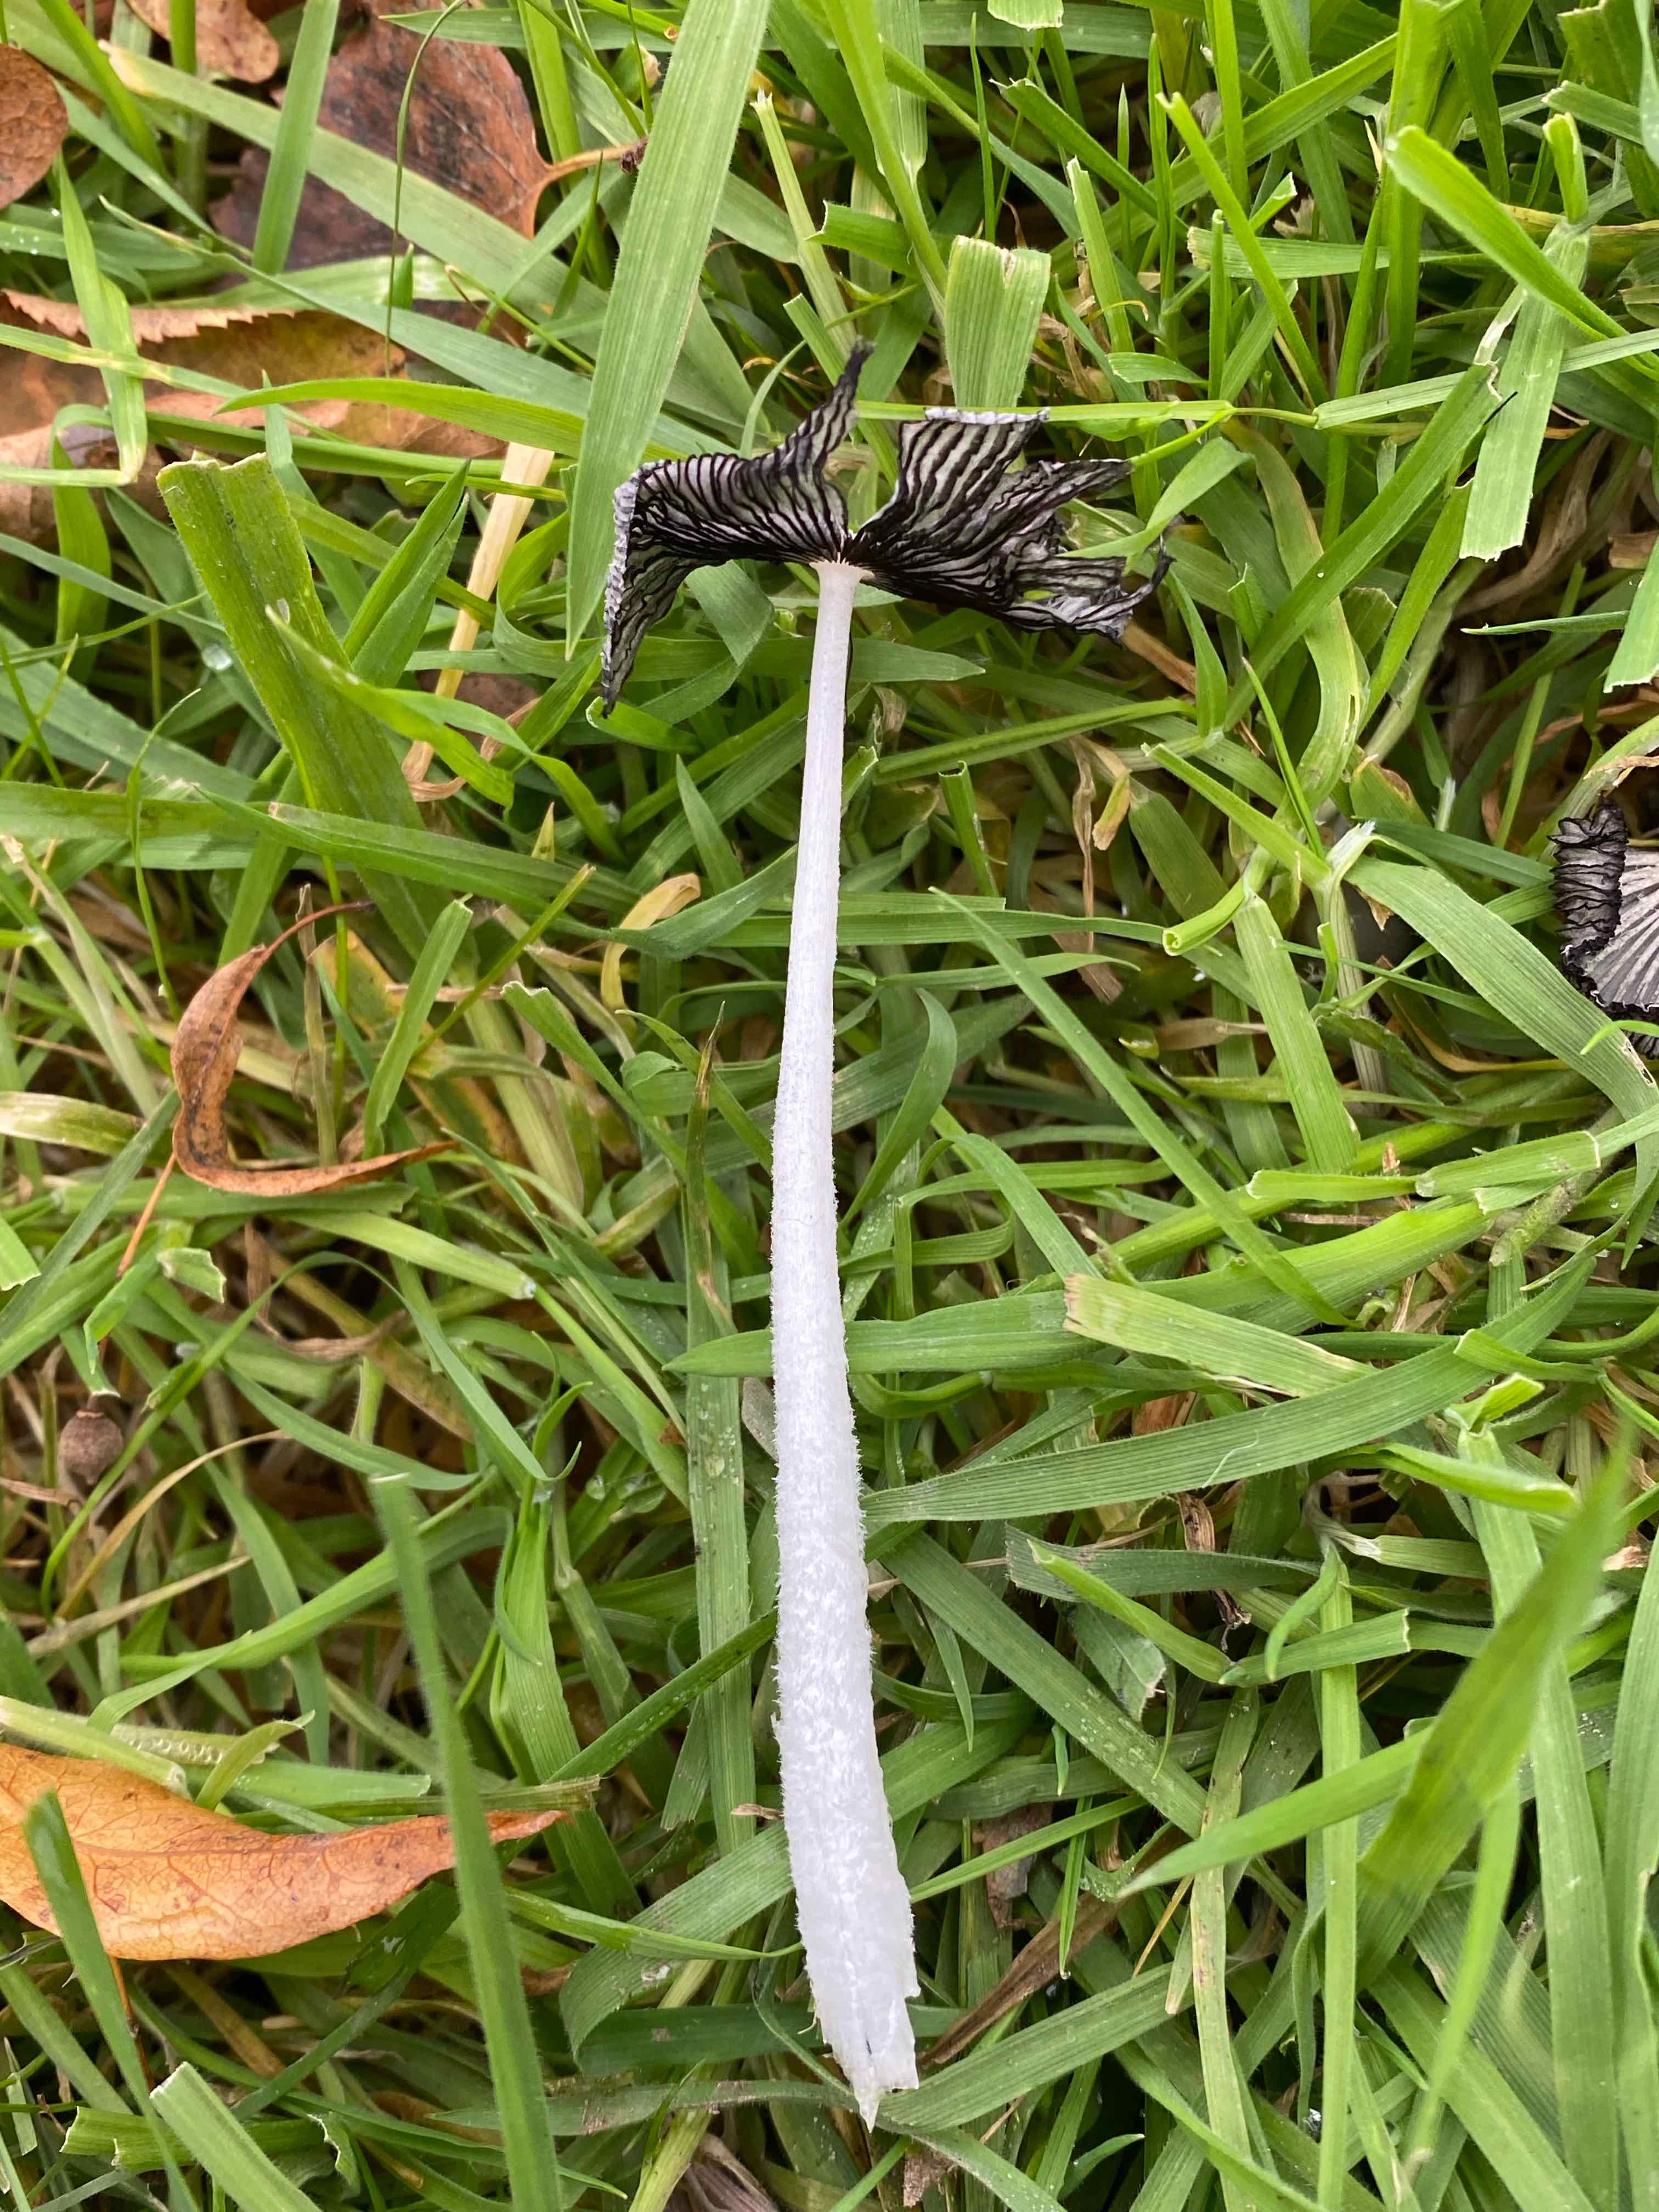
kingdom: Fungi
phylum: Basidiomycota
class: Agaricomycetes
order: Agaricales
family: Psathyrellaceae
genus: Coprinopsis
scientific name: Coprinopsis lagopus
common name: dunstokket blækhat
